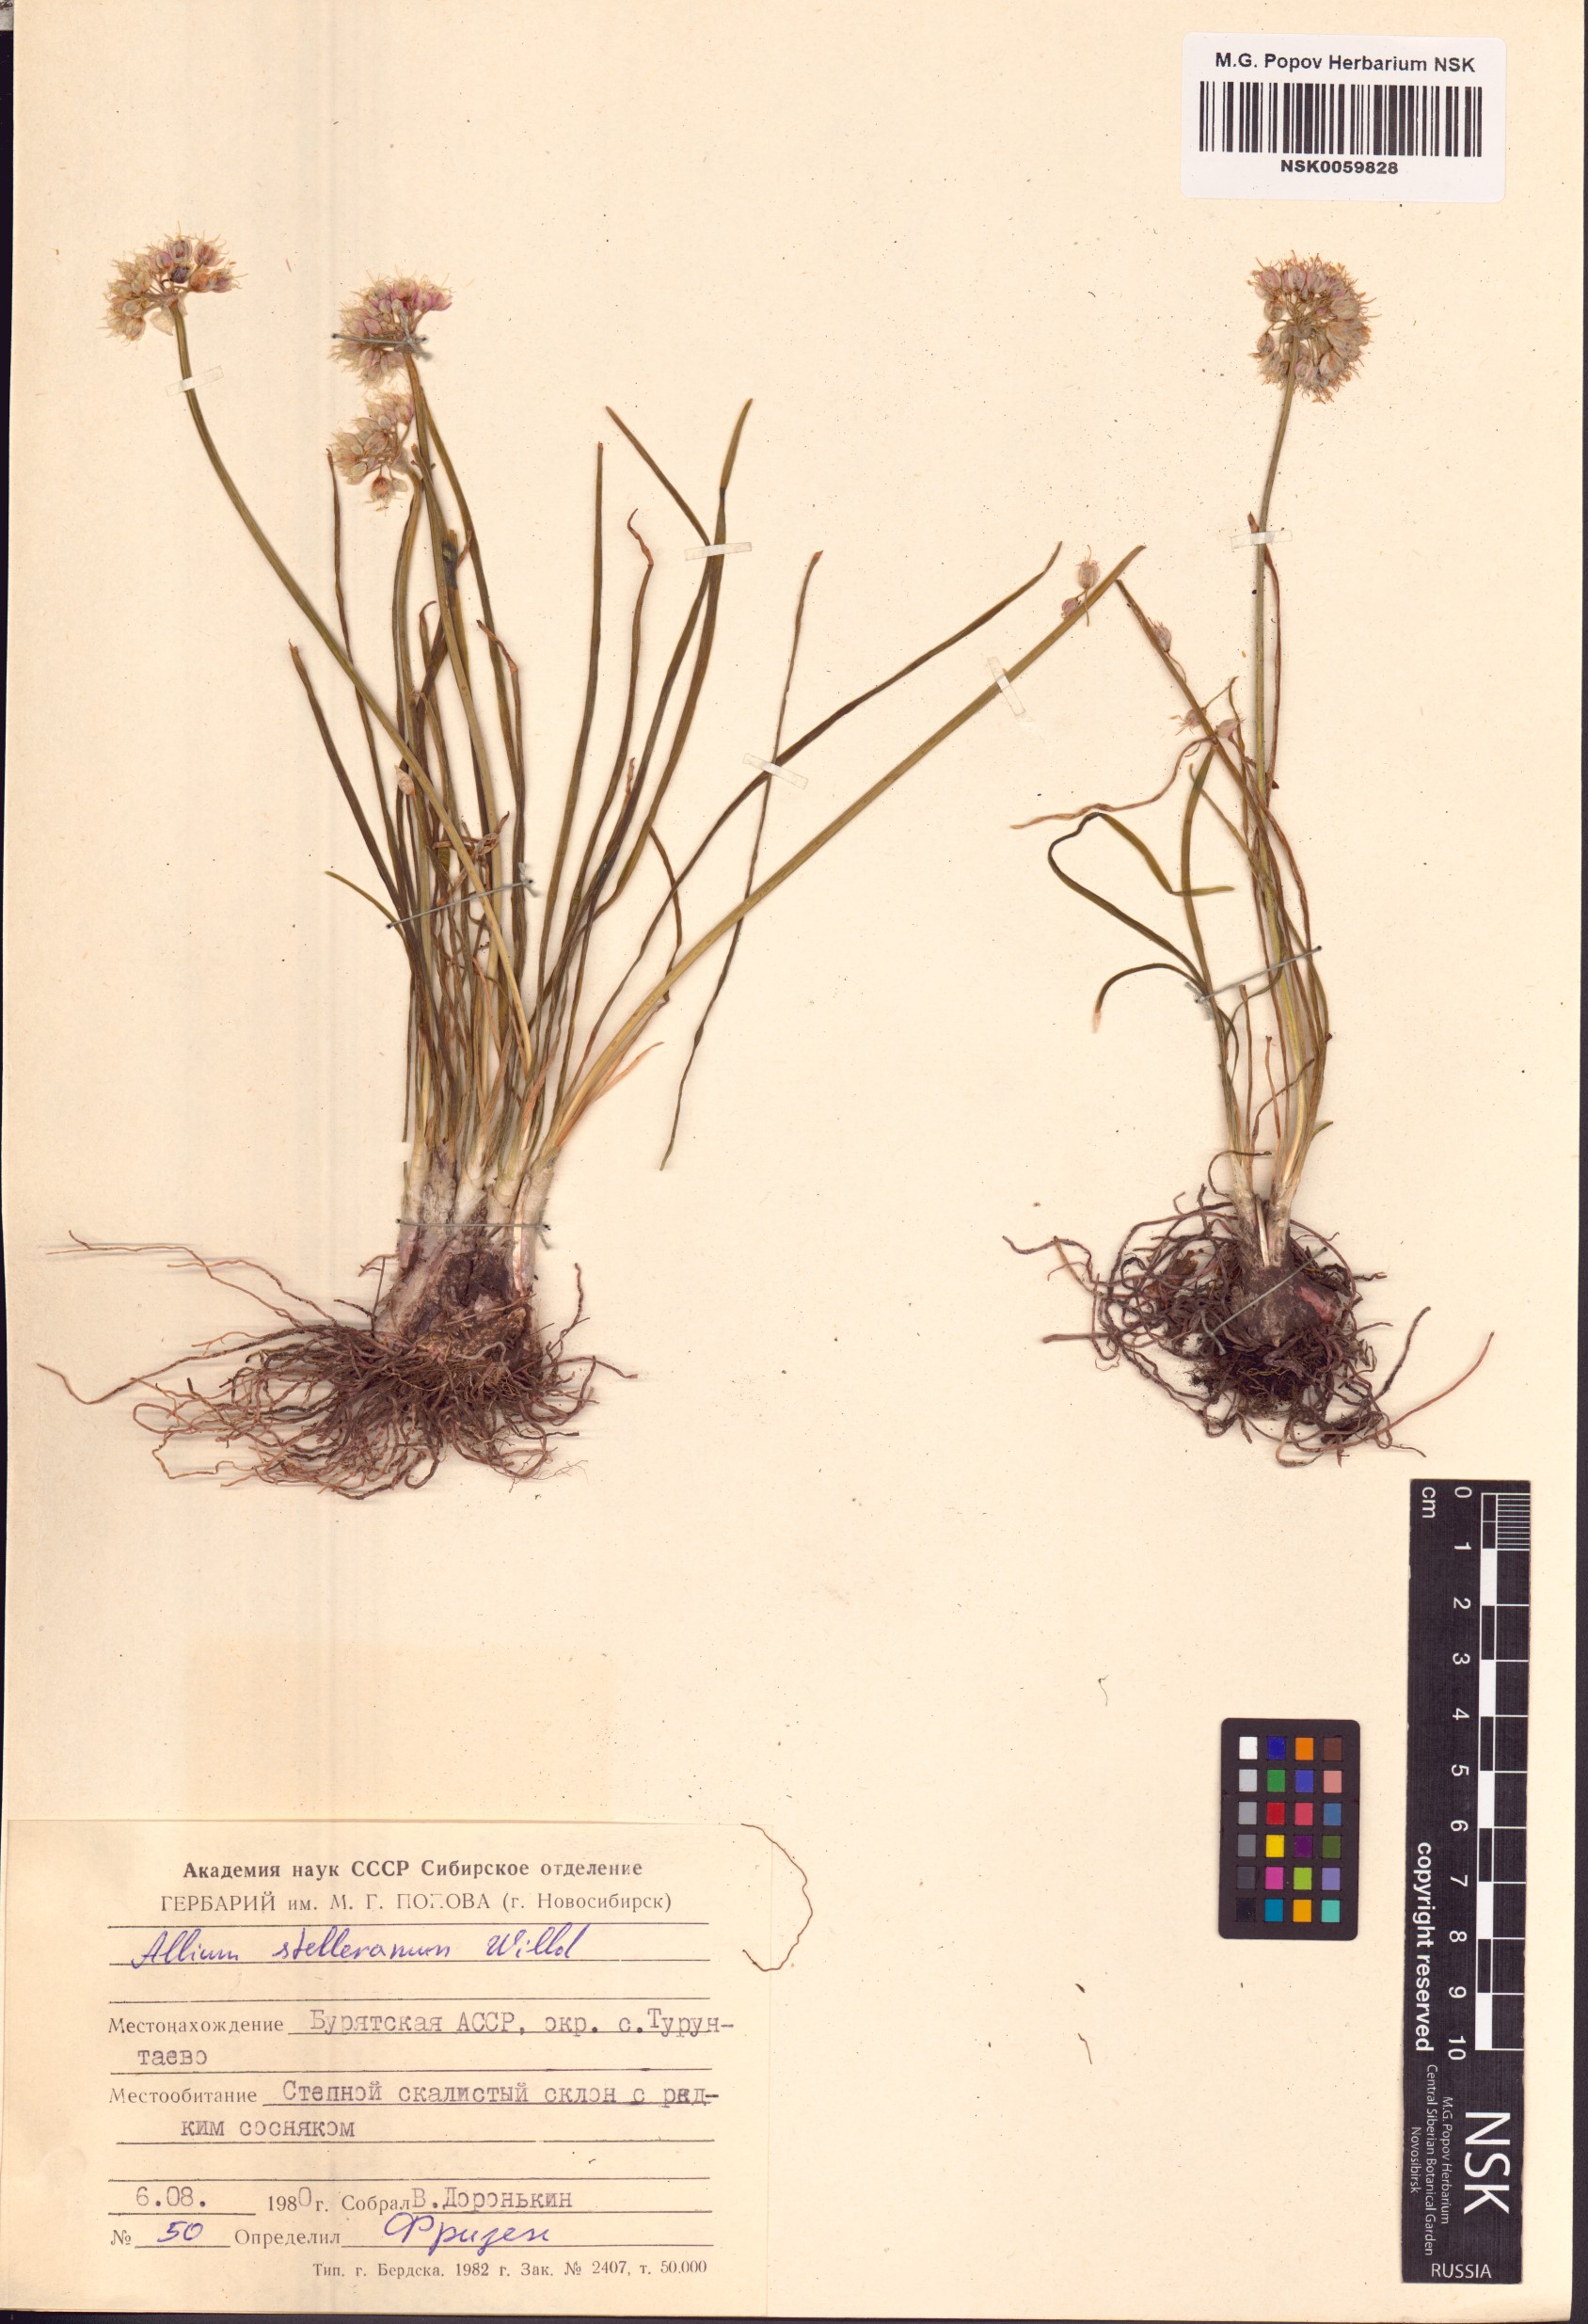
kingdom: Plantae
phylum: Tracheophyta
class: Liliopsida
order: Asparagales
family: Amaryllidaceae
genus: Allium
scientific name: Allium stellerianum
